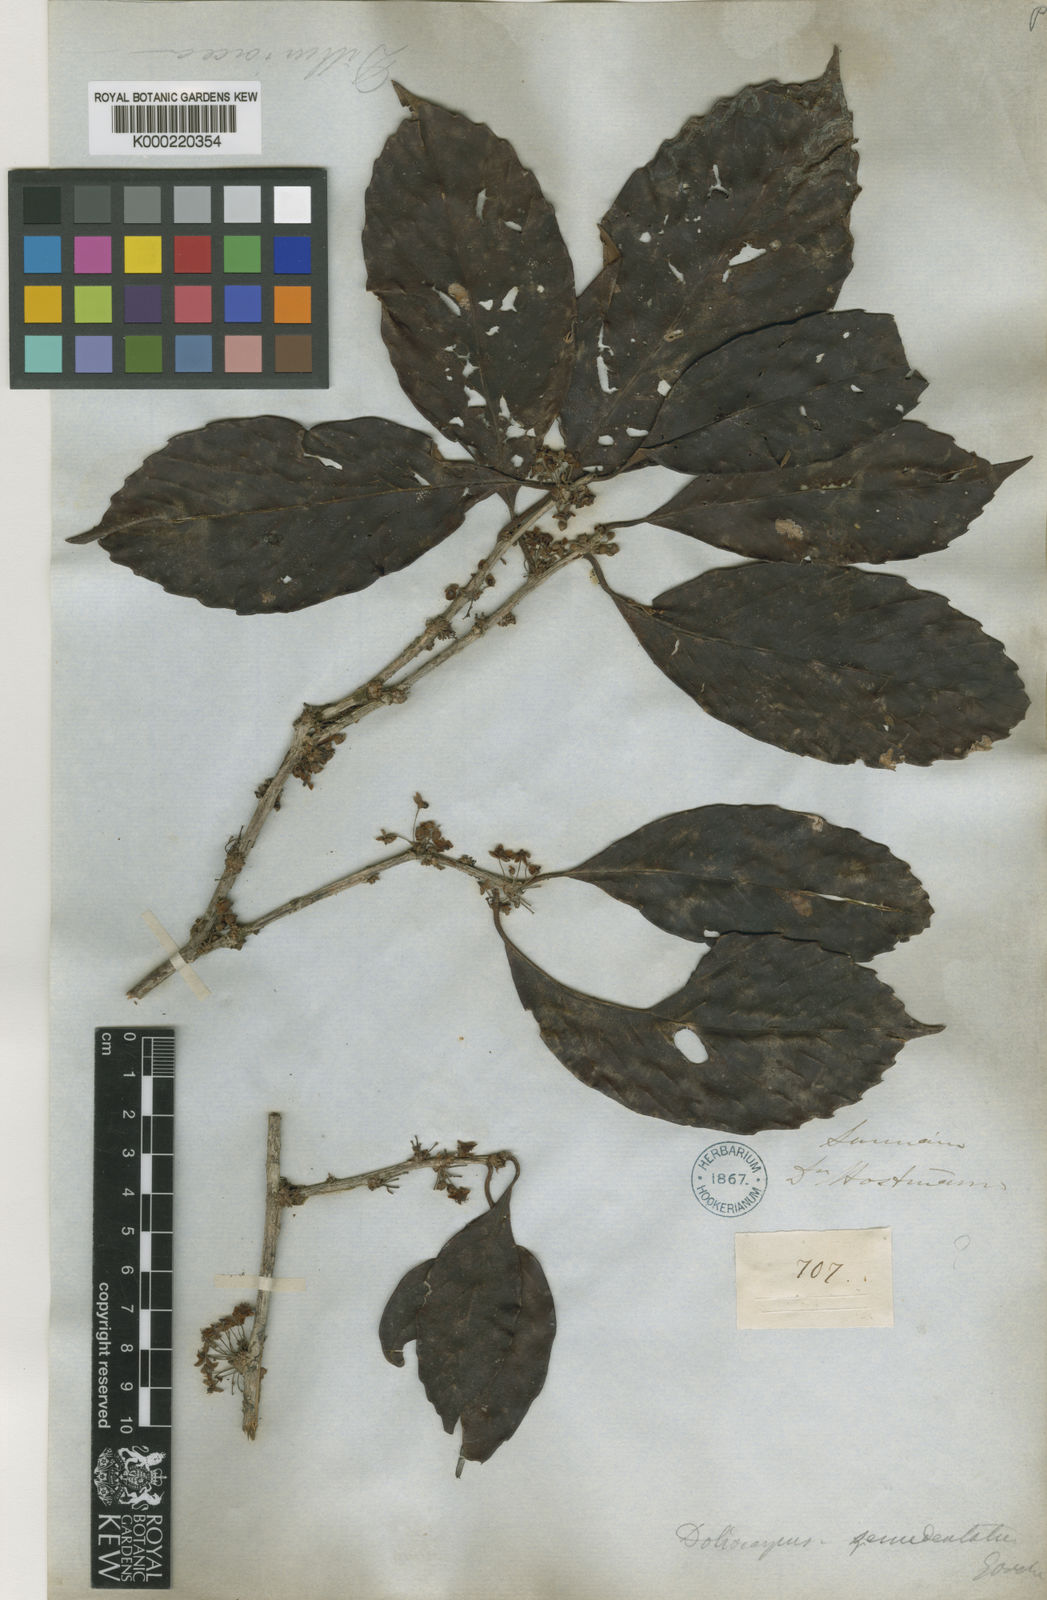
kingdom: Plantae
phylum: Tracheophyta
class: Magnoliopsida
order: Dilleniales
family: Dilleniaceae
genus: Doliocarpus
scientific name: Doliocarpus dentatus
